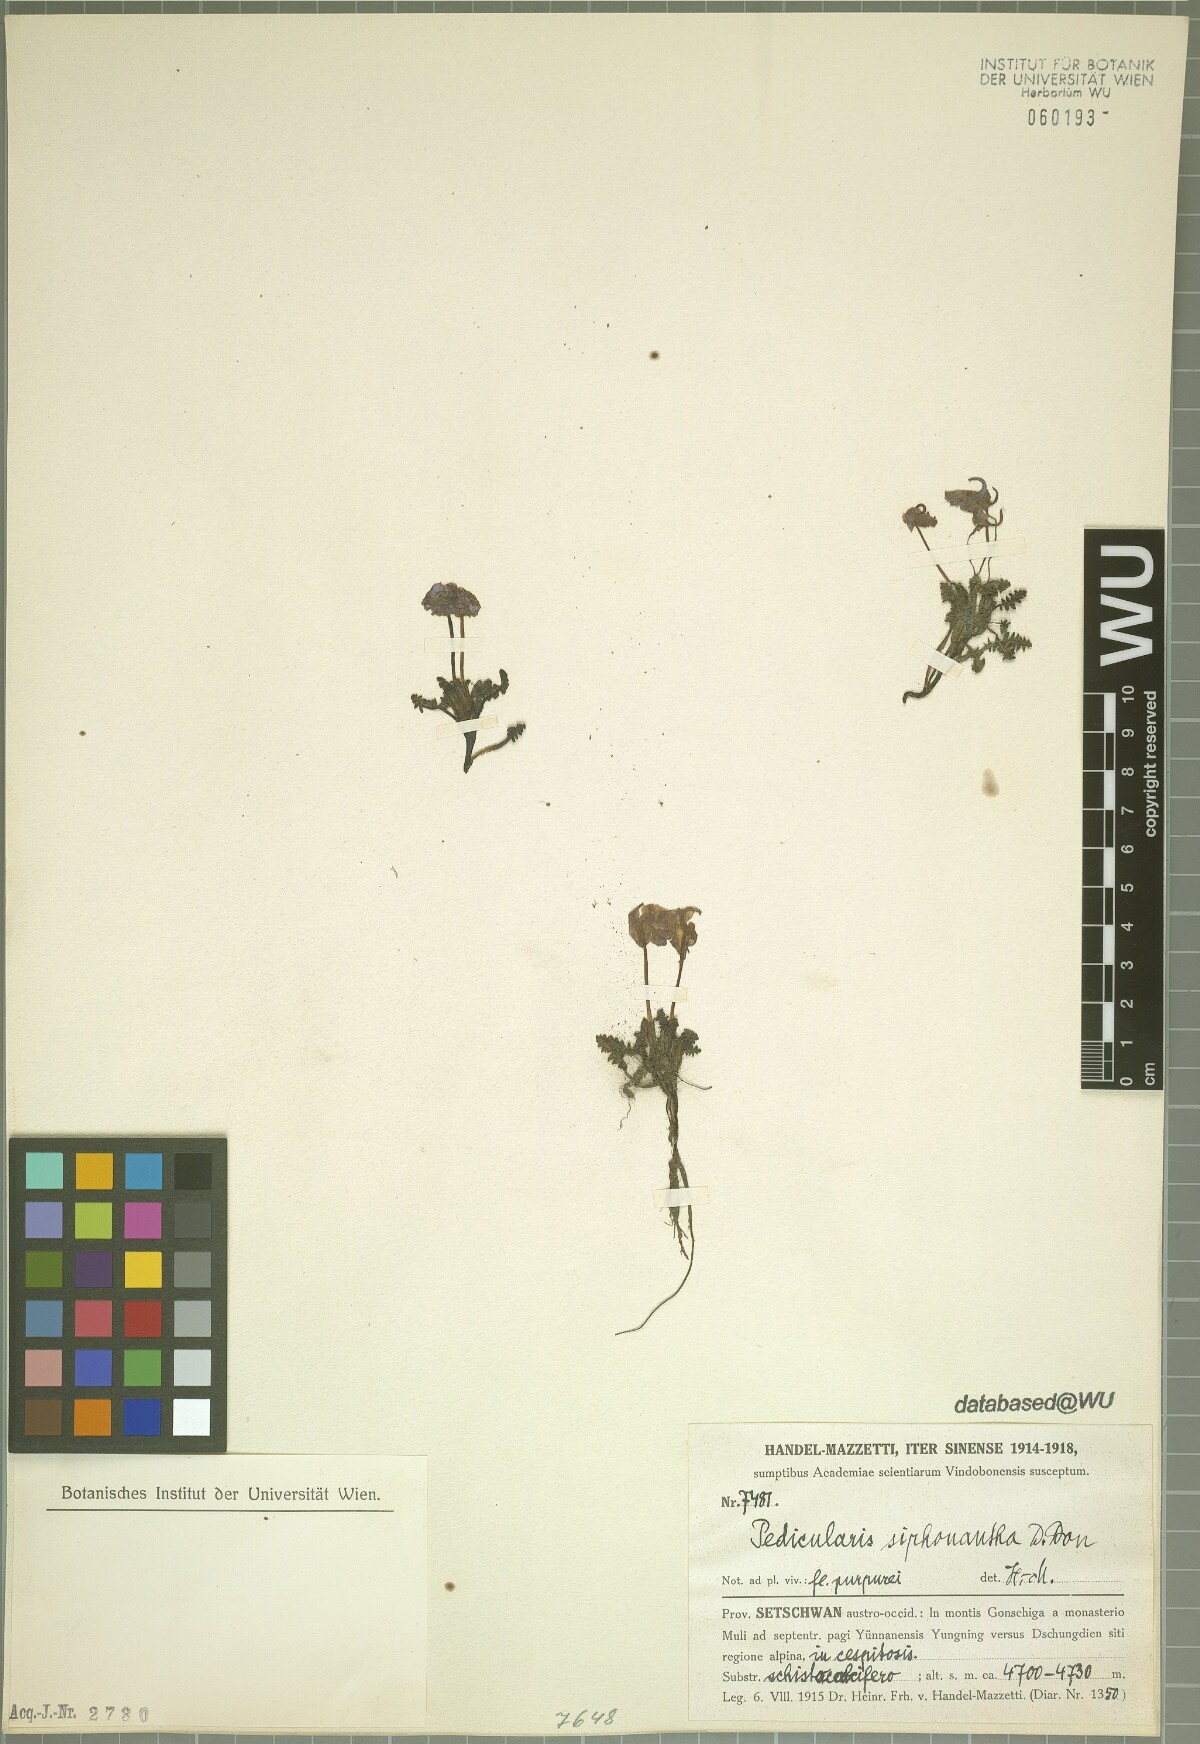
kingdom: Plantae
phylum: Tracheophyta
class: Magnoliopsida
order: Lamiales
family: Orobanchaceae
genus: Pedicularis
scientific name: Pedicularis siphonantha
